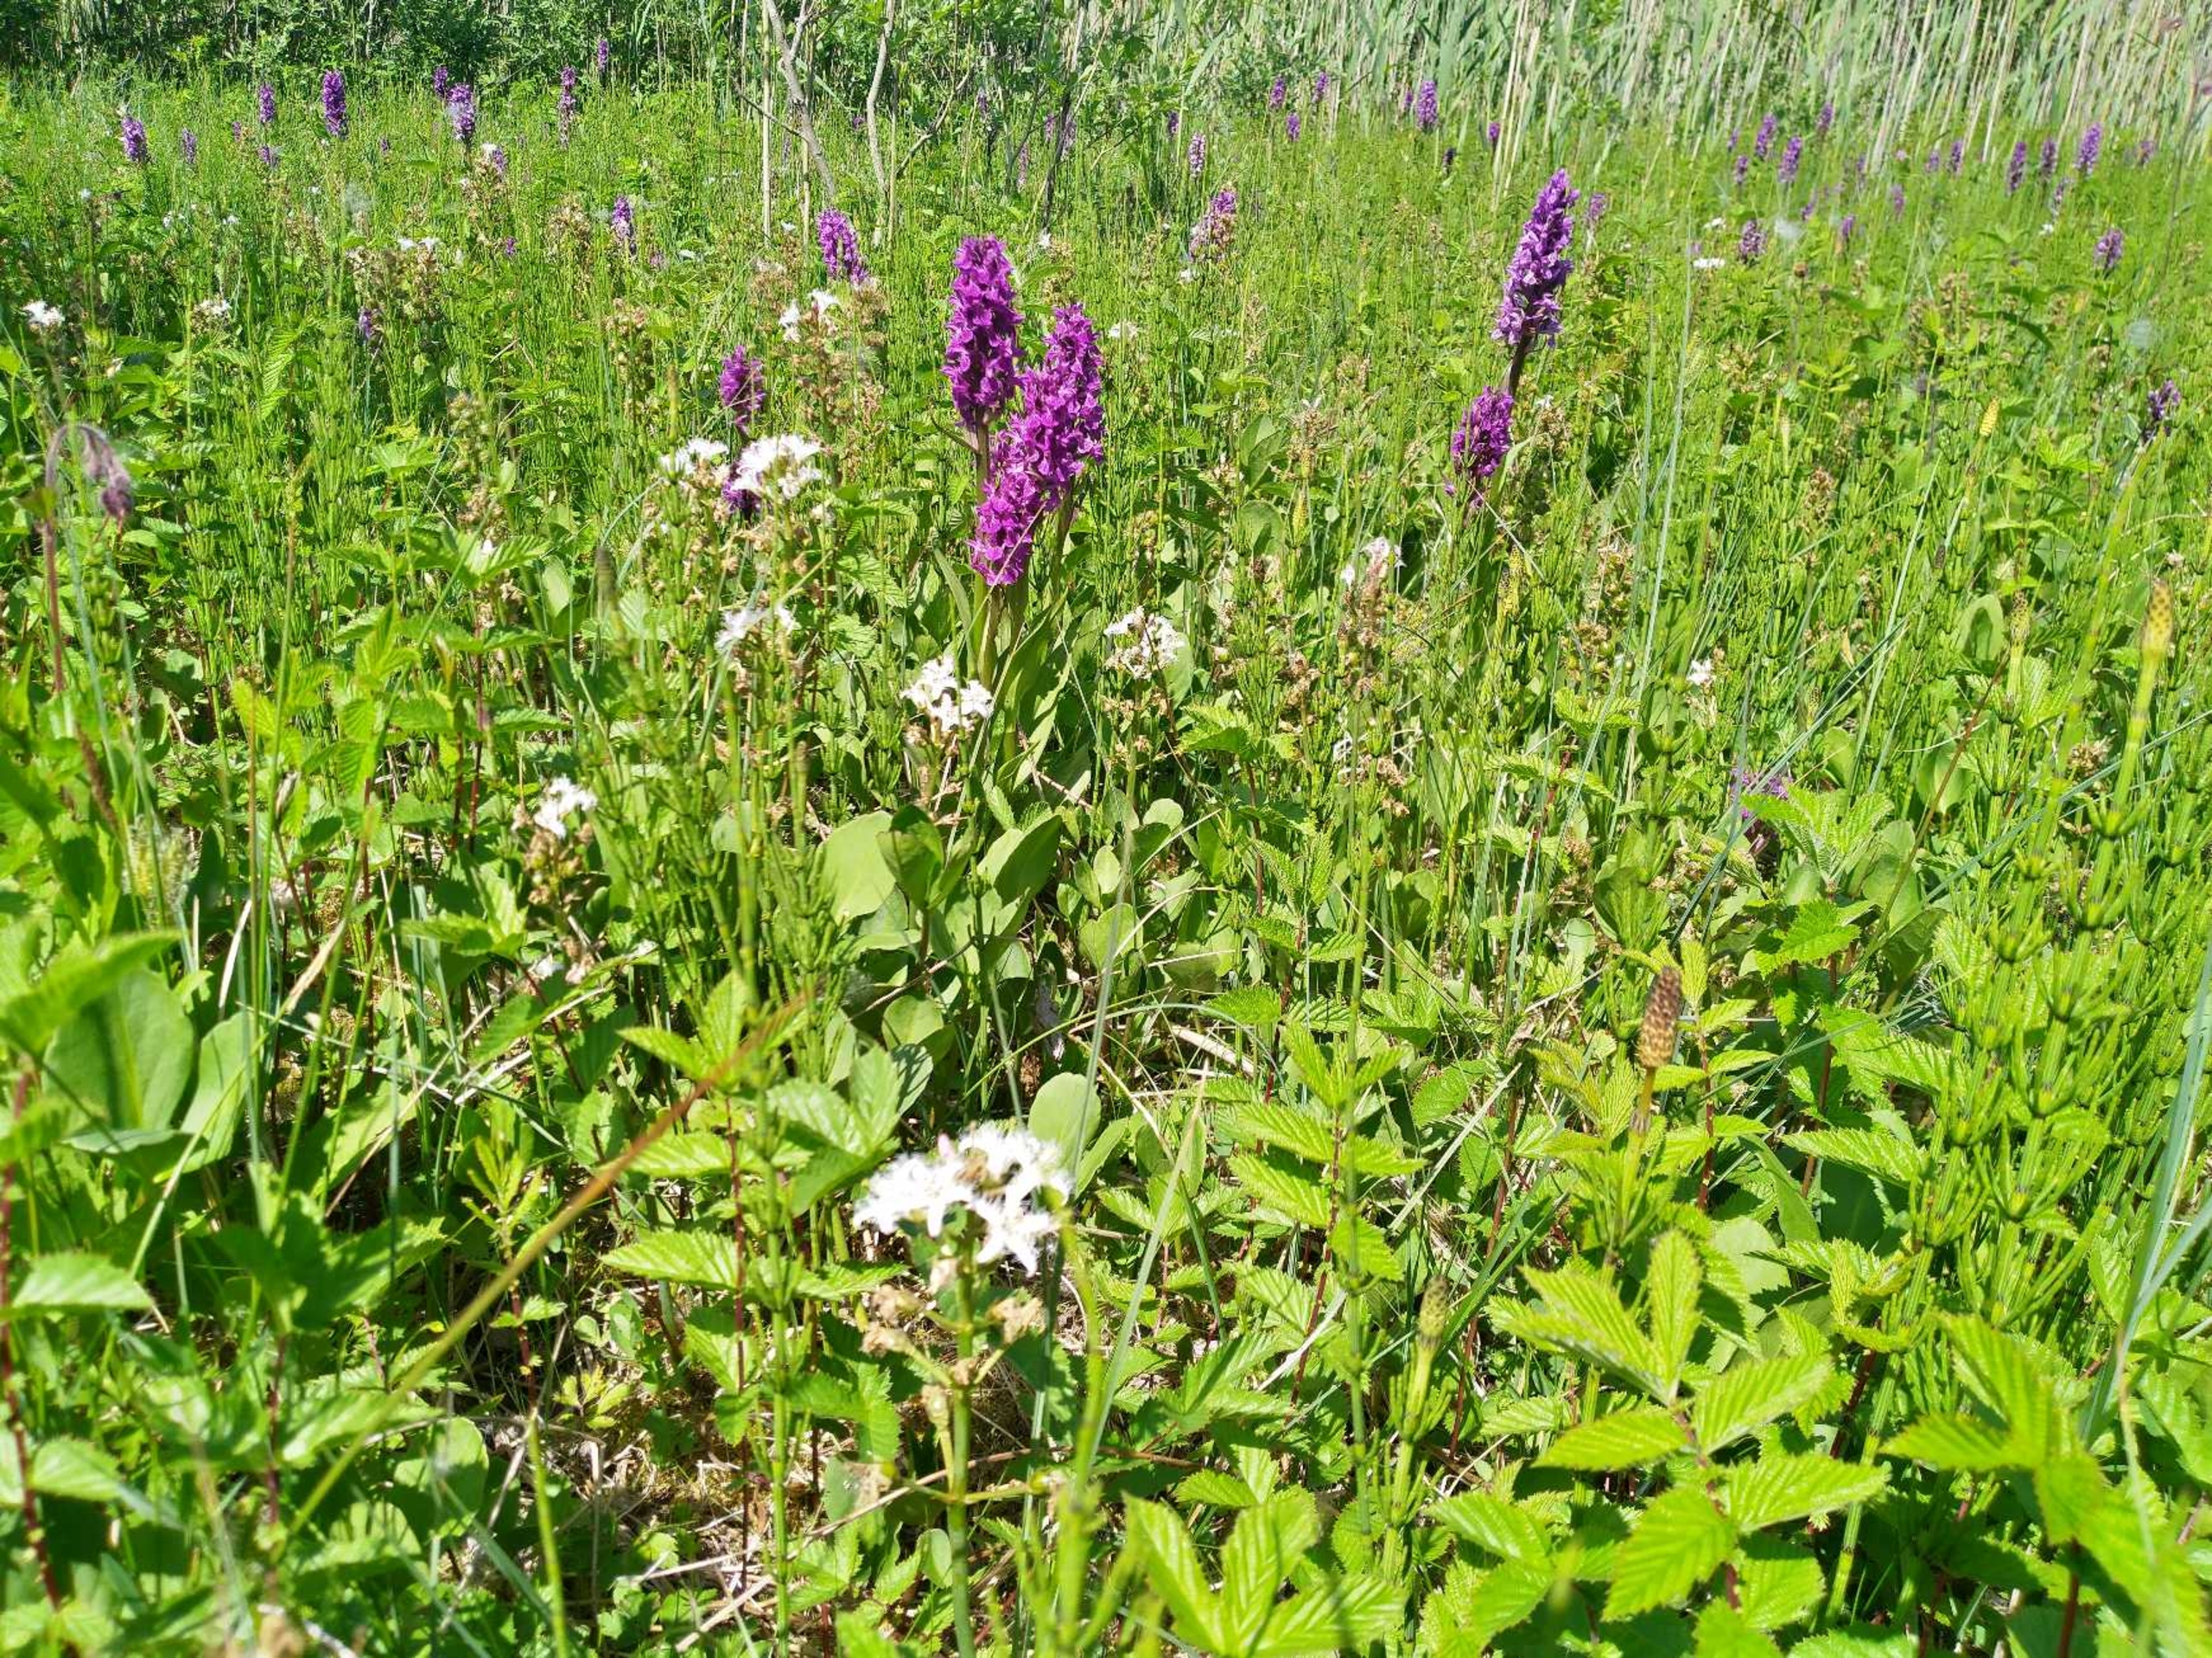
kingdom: Plantae
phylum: Tracheophyta
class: Magnoliopsida
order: Asterales
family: Menyanthaceae
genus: Menyanthes
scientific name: Menyanthes trifoliata
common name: Bukkeblad
